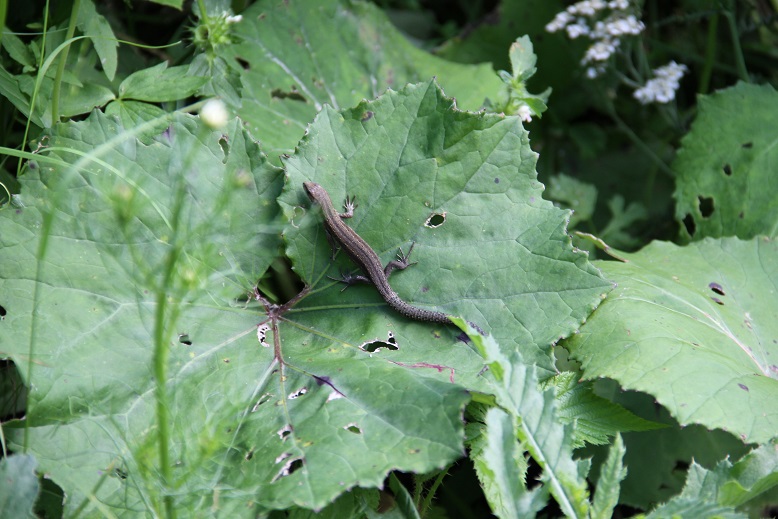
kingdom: Animalia
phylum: Chordata
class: Squamata
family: Lacertidae
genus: Zootoca
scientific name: Zootoca vivipara
